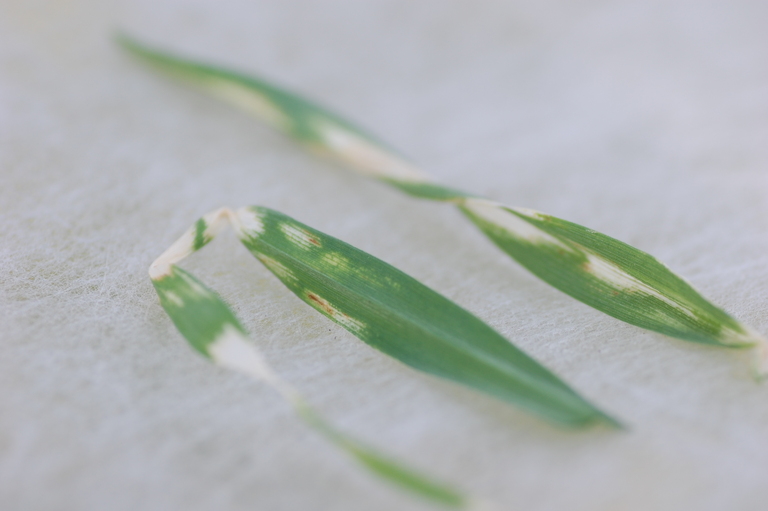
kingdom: Plantae
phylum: Tracheophyta
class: Liliopsida
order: Poales
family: Poaceae
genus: Hordeum
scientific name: Hordeum vulgare
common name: Common barley
